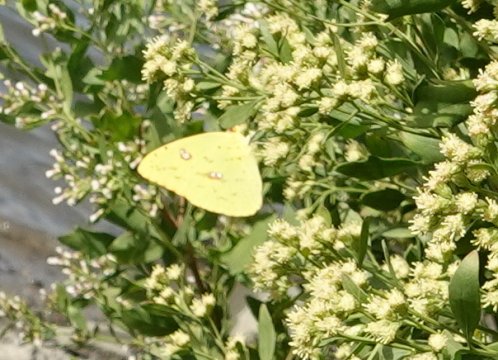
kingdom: Animalia
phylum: Arthropoda
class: Insecta
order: Lepidoptera
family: Pieridae
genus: Phoebis
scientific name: Phoebis sennae
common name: Cloudless Sulphur
